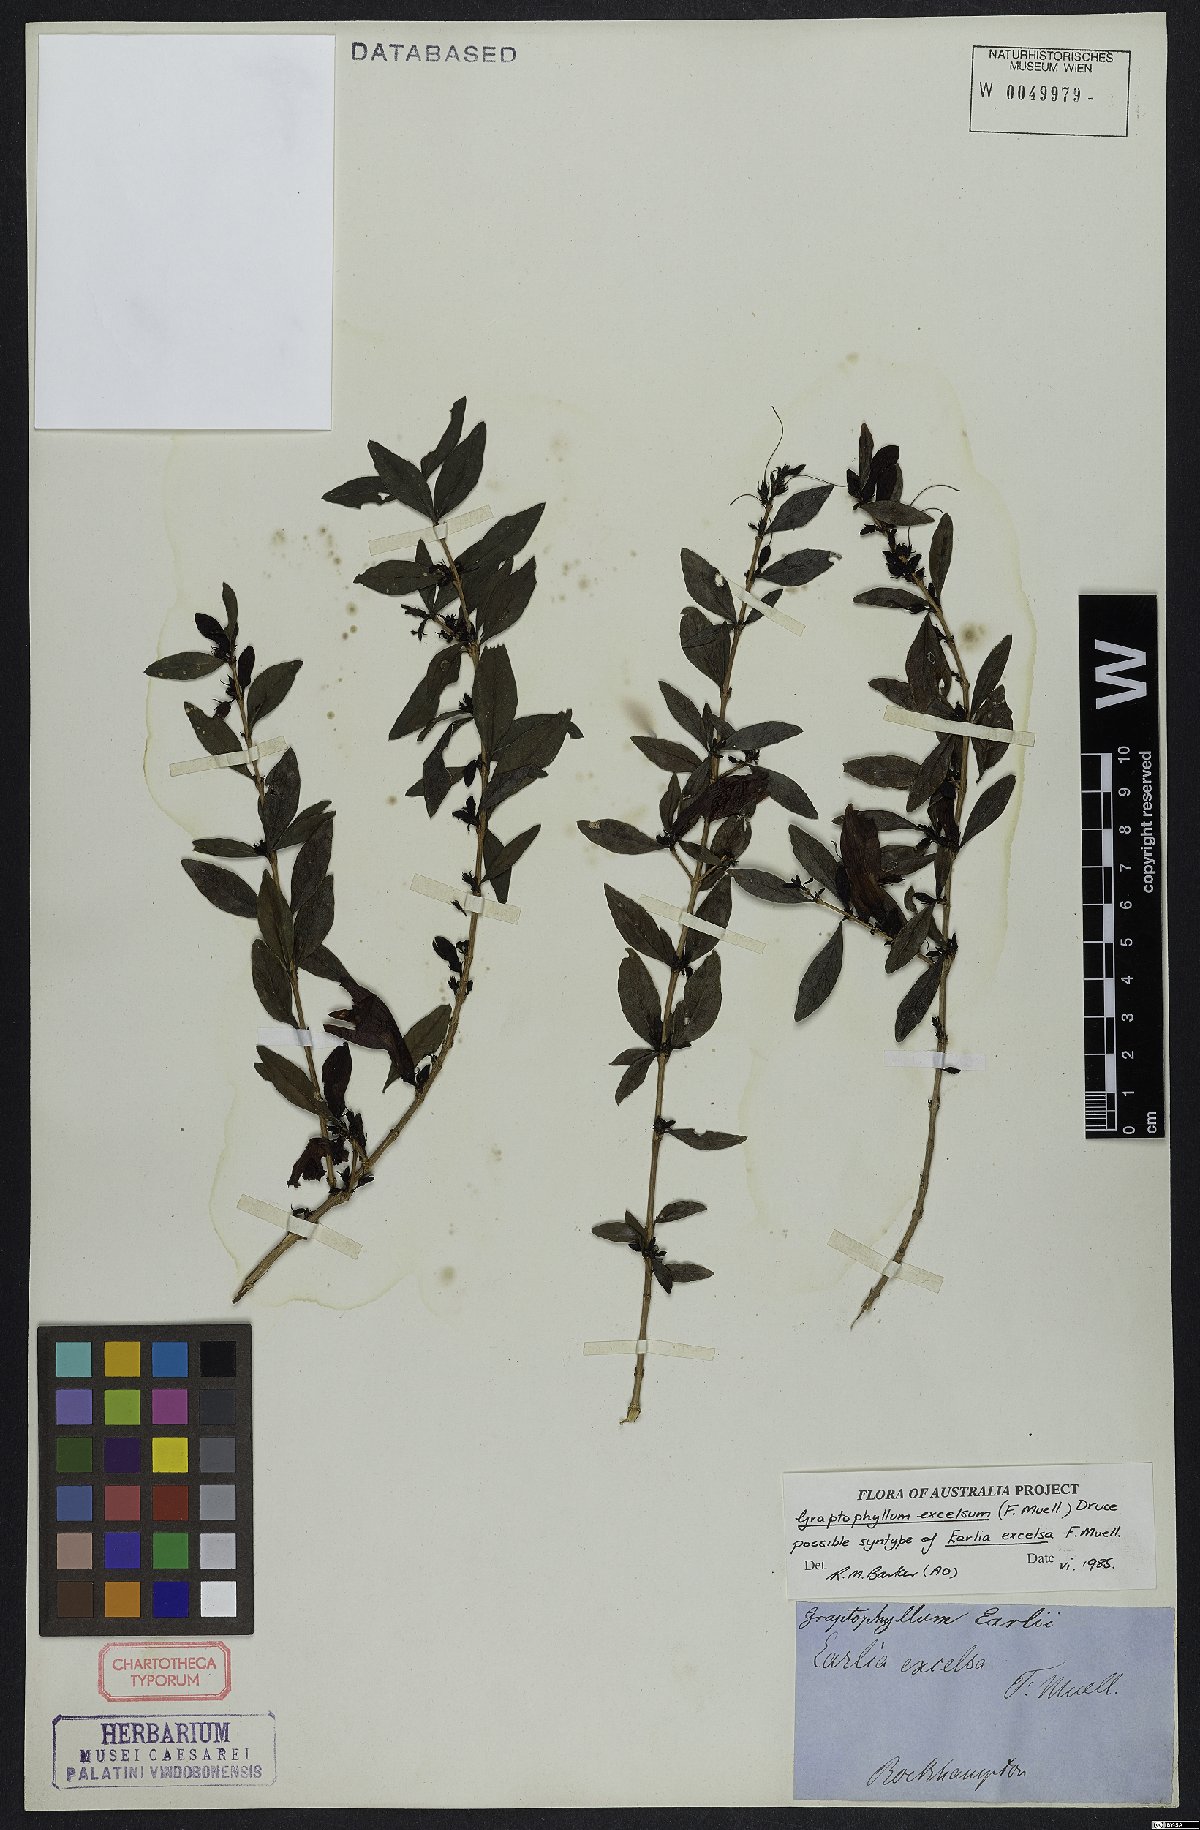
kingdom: Plantae
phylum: Tracheophyta
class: Magnoliopsida
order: Lamiales
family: Acanthaceae
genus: Graptophyllum
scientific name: Graptophyllum excelsum
